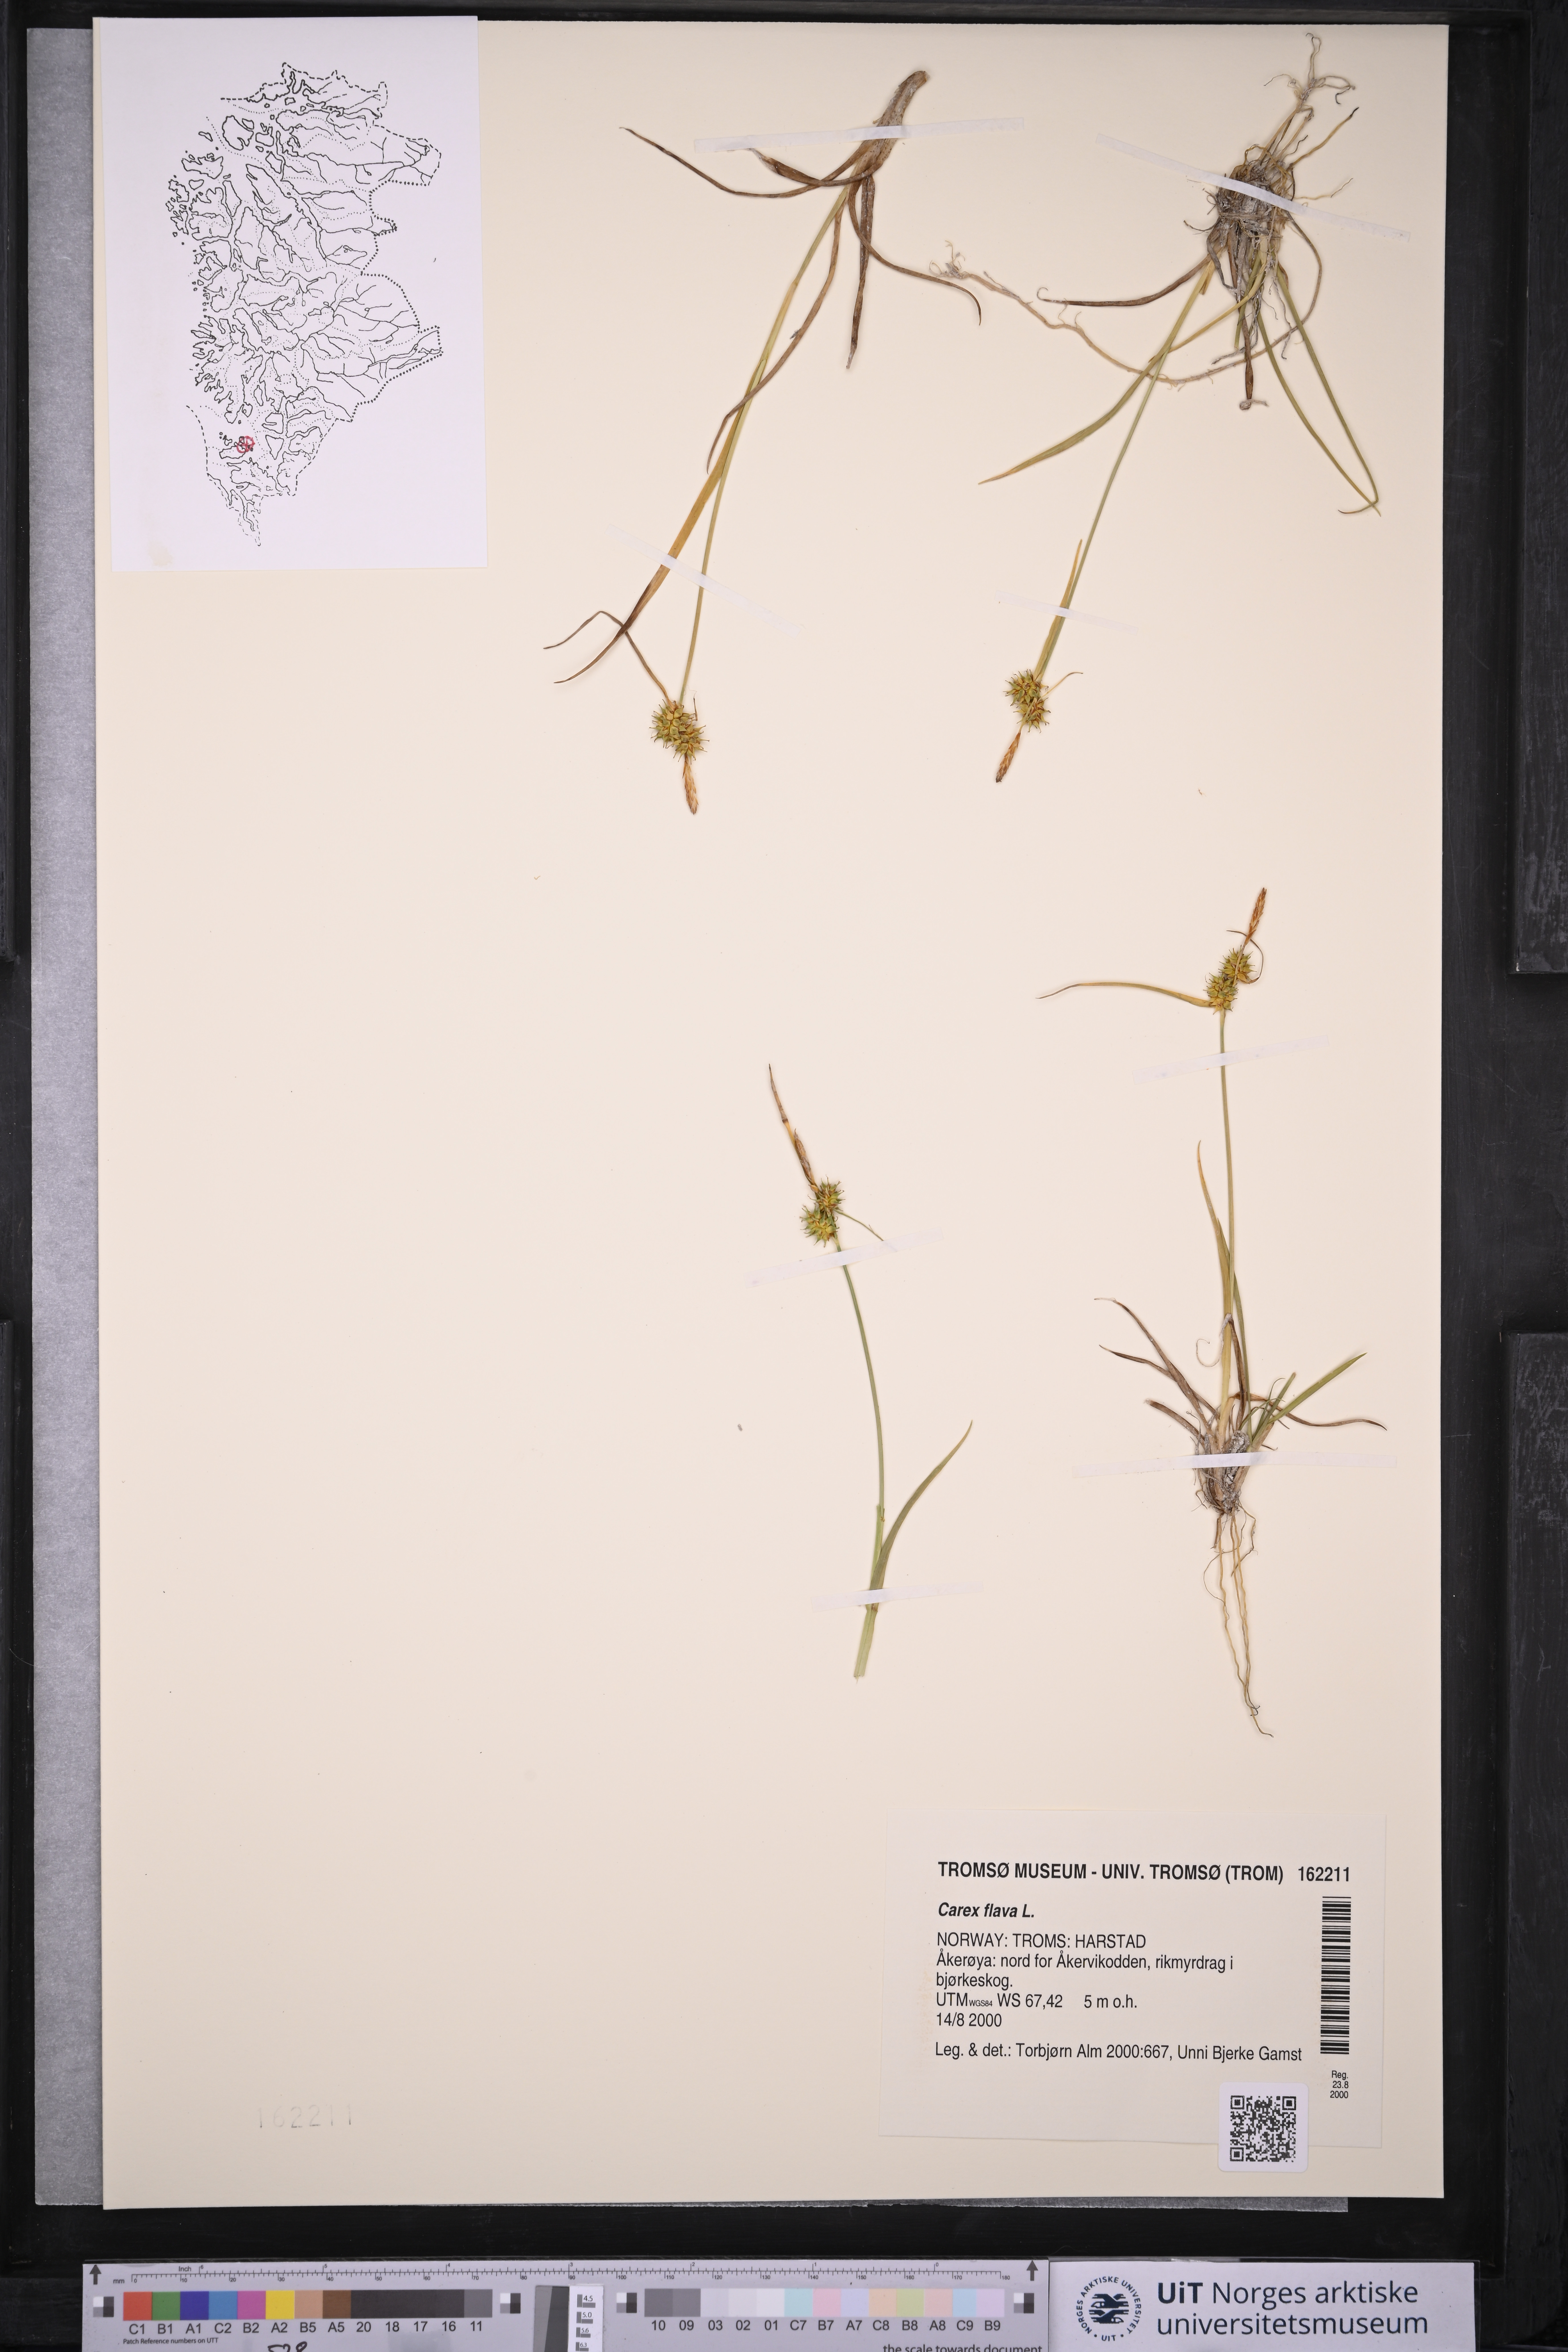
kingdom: Plantae
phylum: Tracheophyta
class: Liliopsida
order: Poales
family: Cyperaceae
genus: Carex
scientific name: Carex flava
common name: Large yellow-sedge
